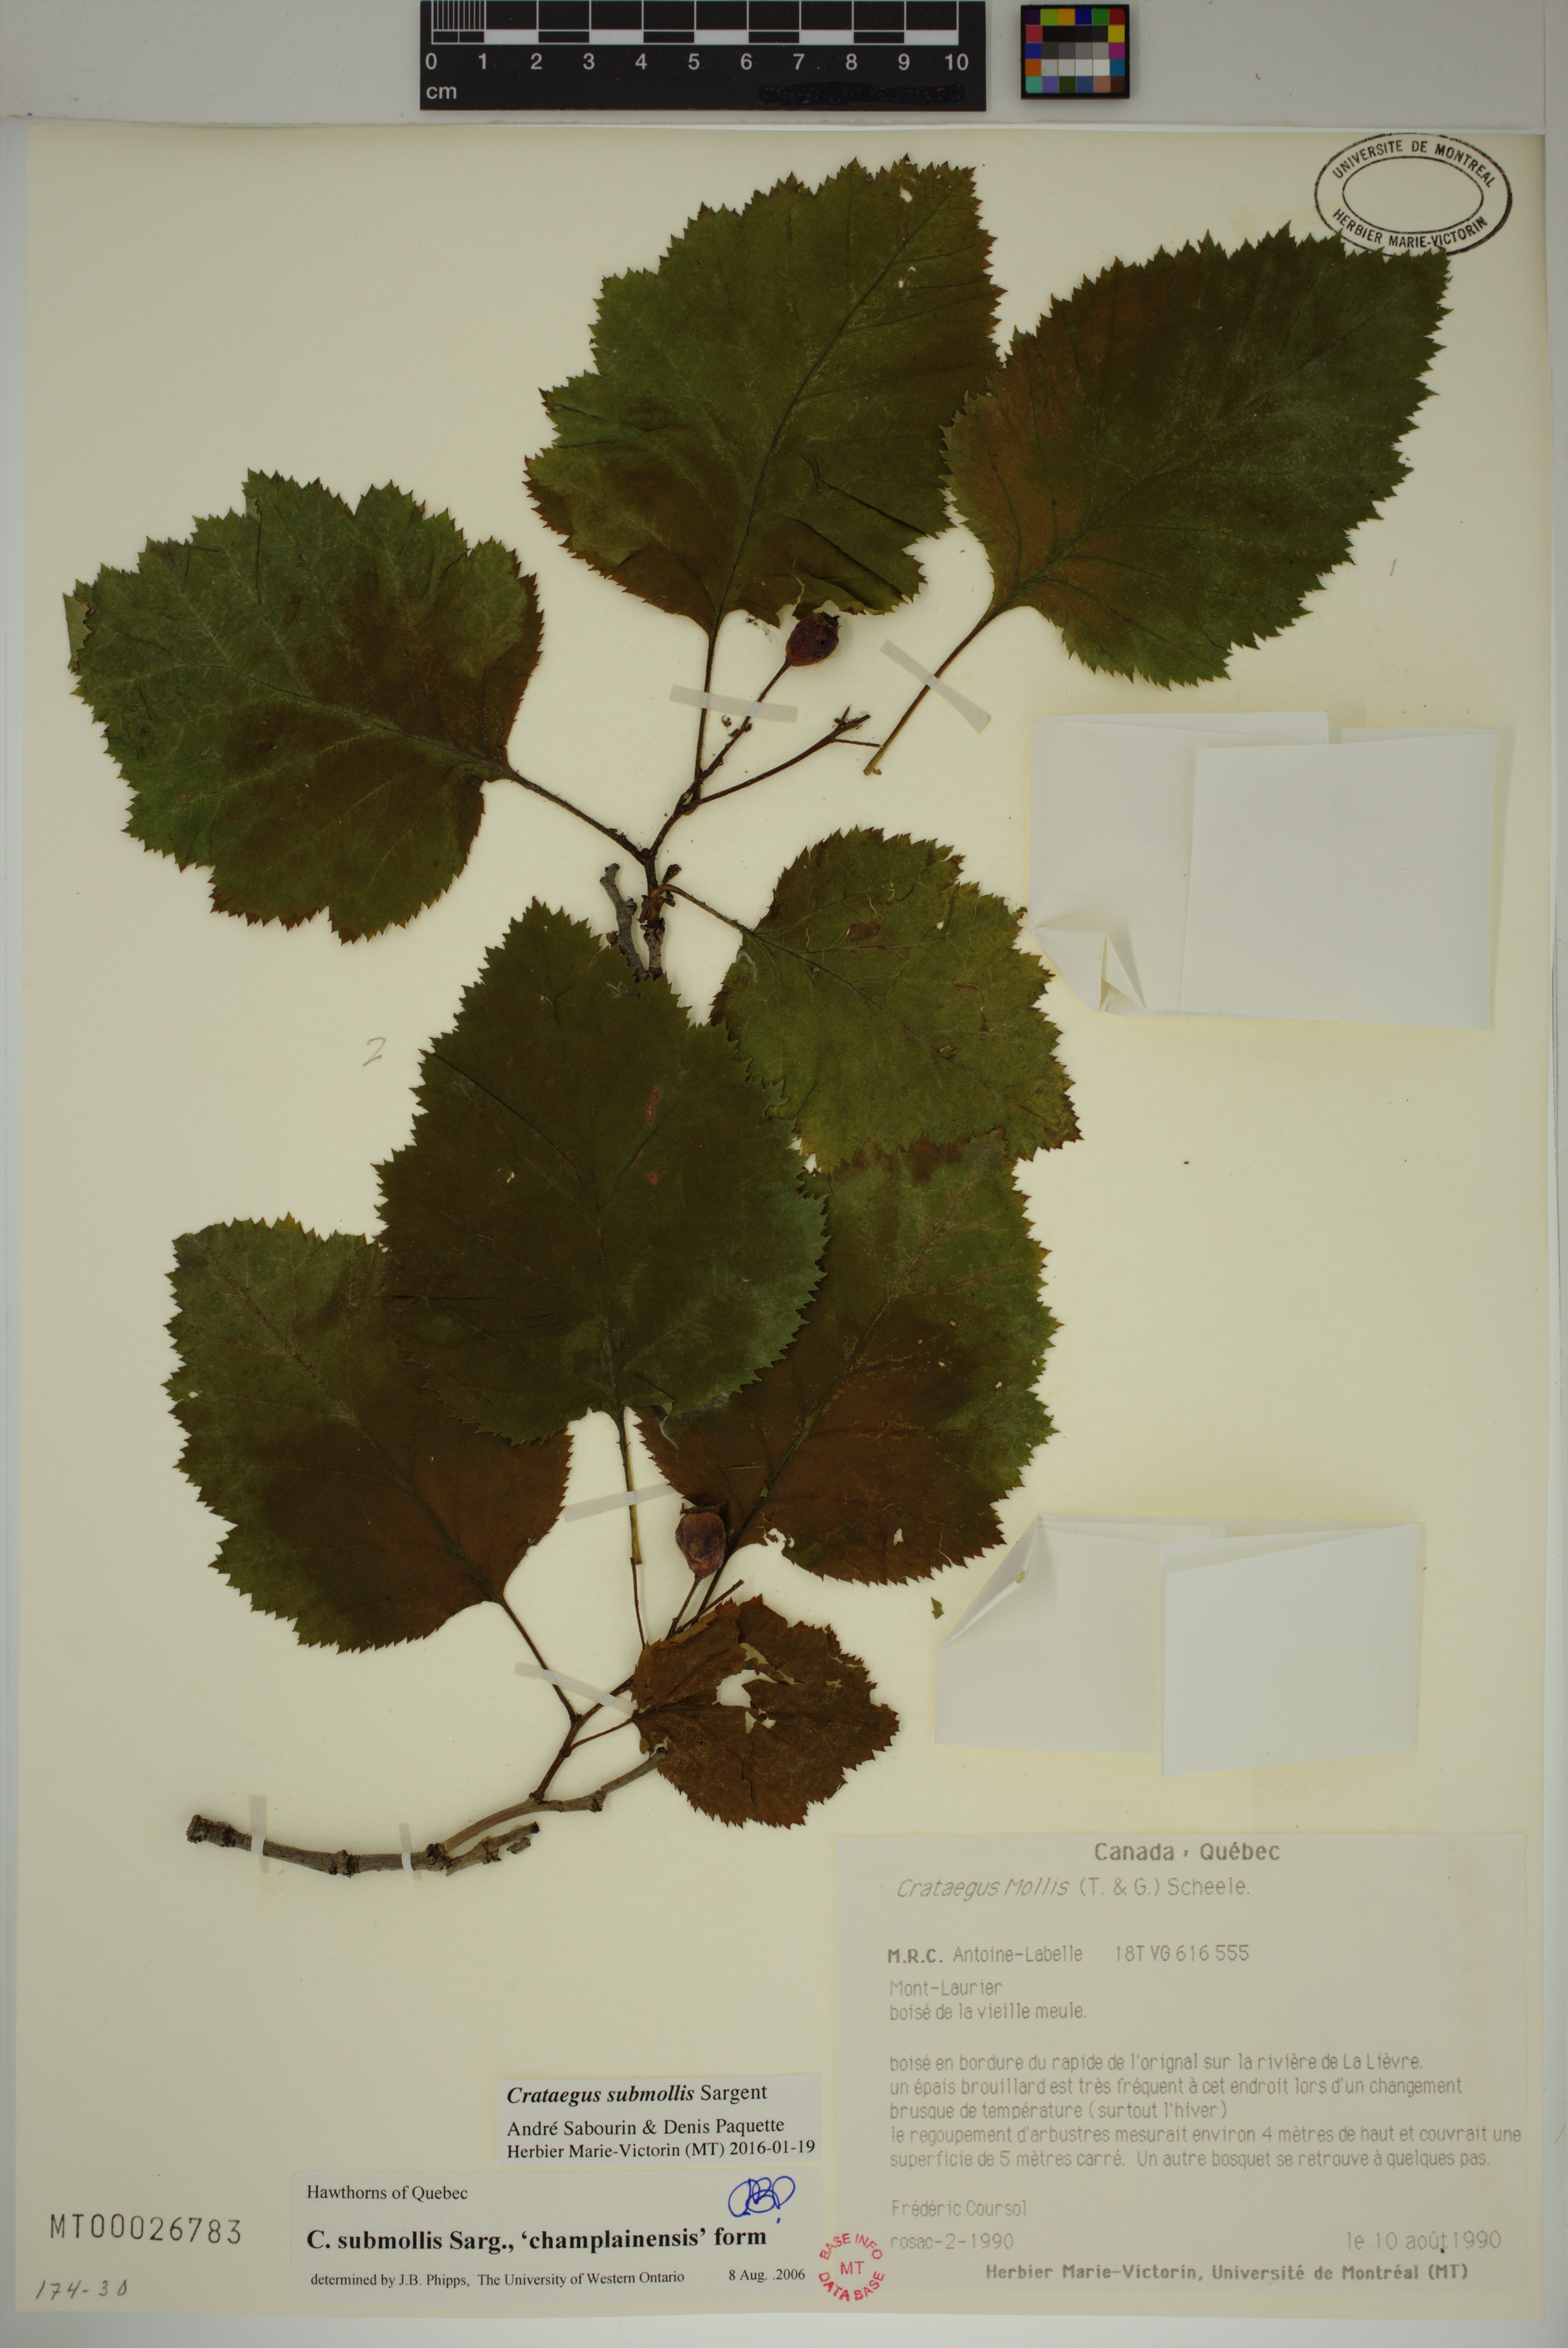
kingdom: Plantae
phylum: Tracheophyta
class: Magnoliopsida
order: Rosales
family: Rosaceae
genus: Crataegus
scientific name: Crataegus submollis
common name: Hairy cockspurthorn
